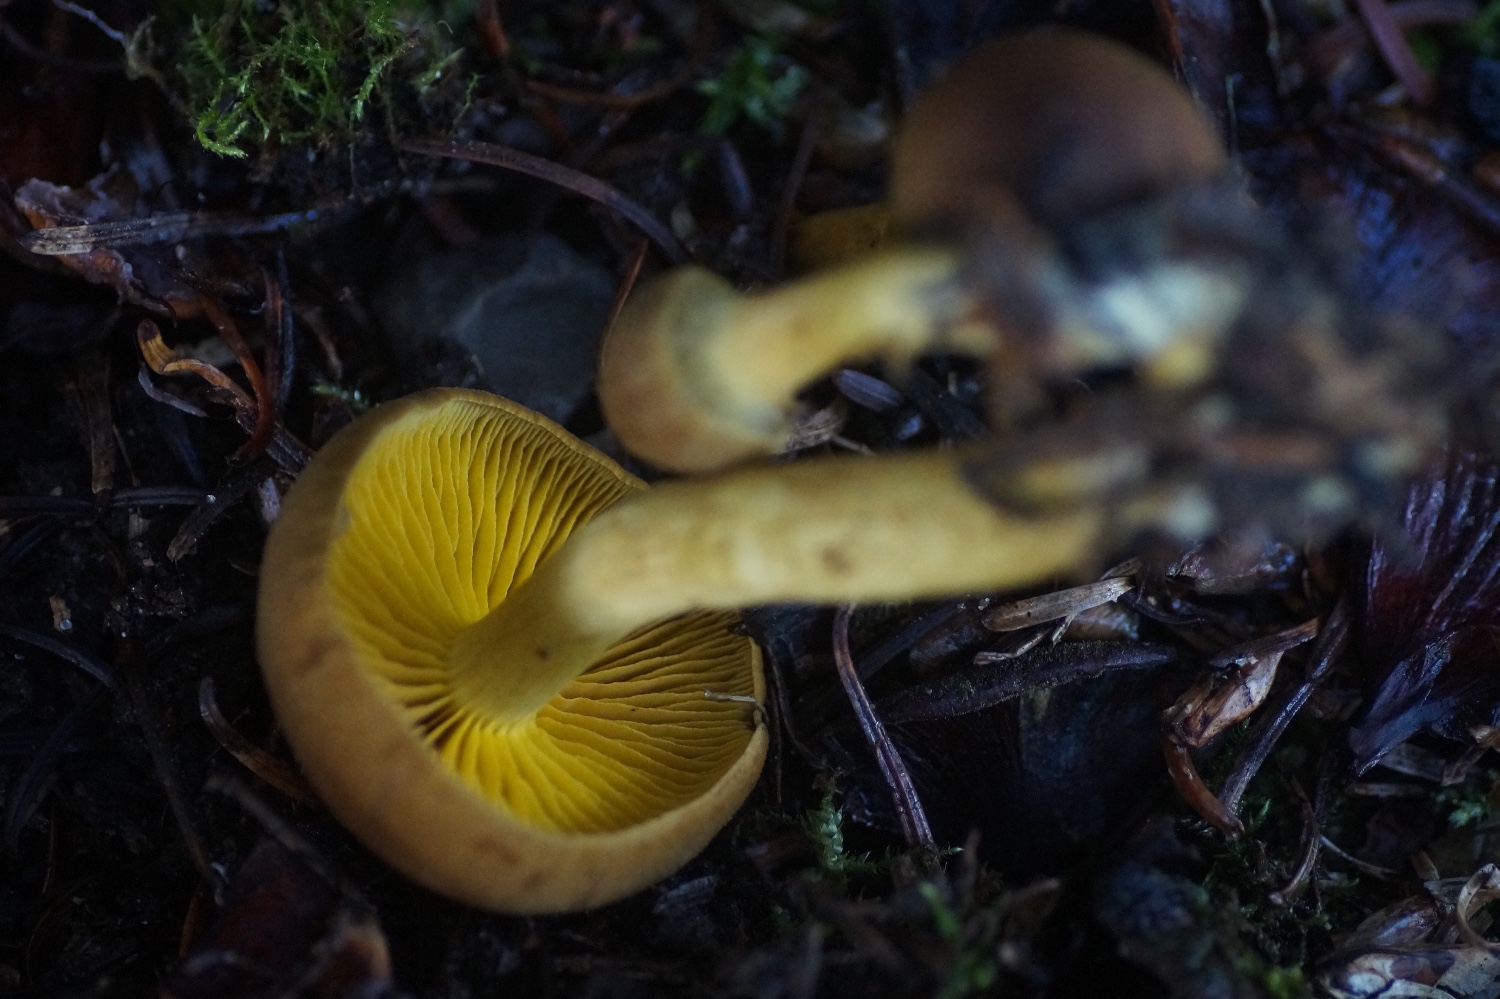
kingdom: Fungi
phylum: Basidiomycota
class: Agaricomycetes
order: Agaricales
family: Cortinariaceae
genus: Cortinarius
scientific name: Cortinarius
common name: gulbladet slørhat
